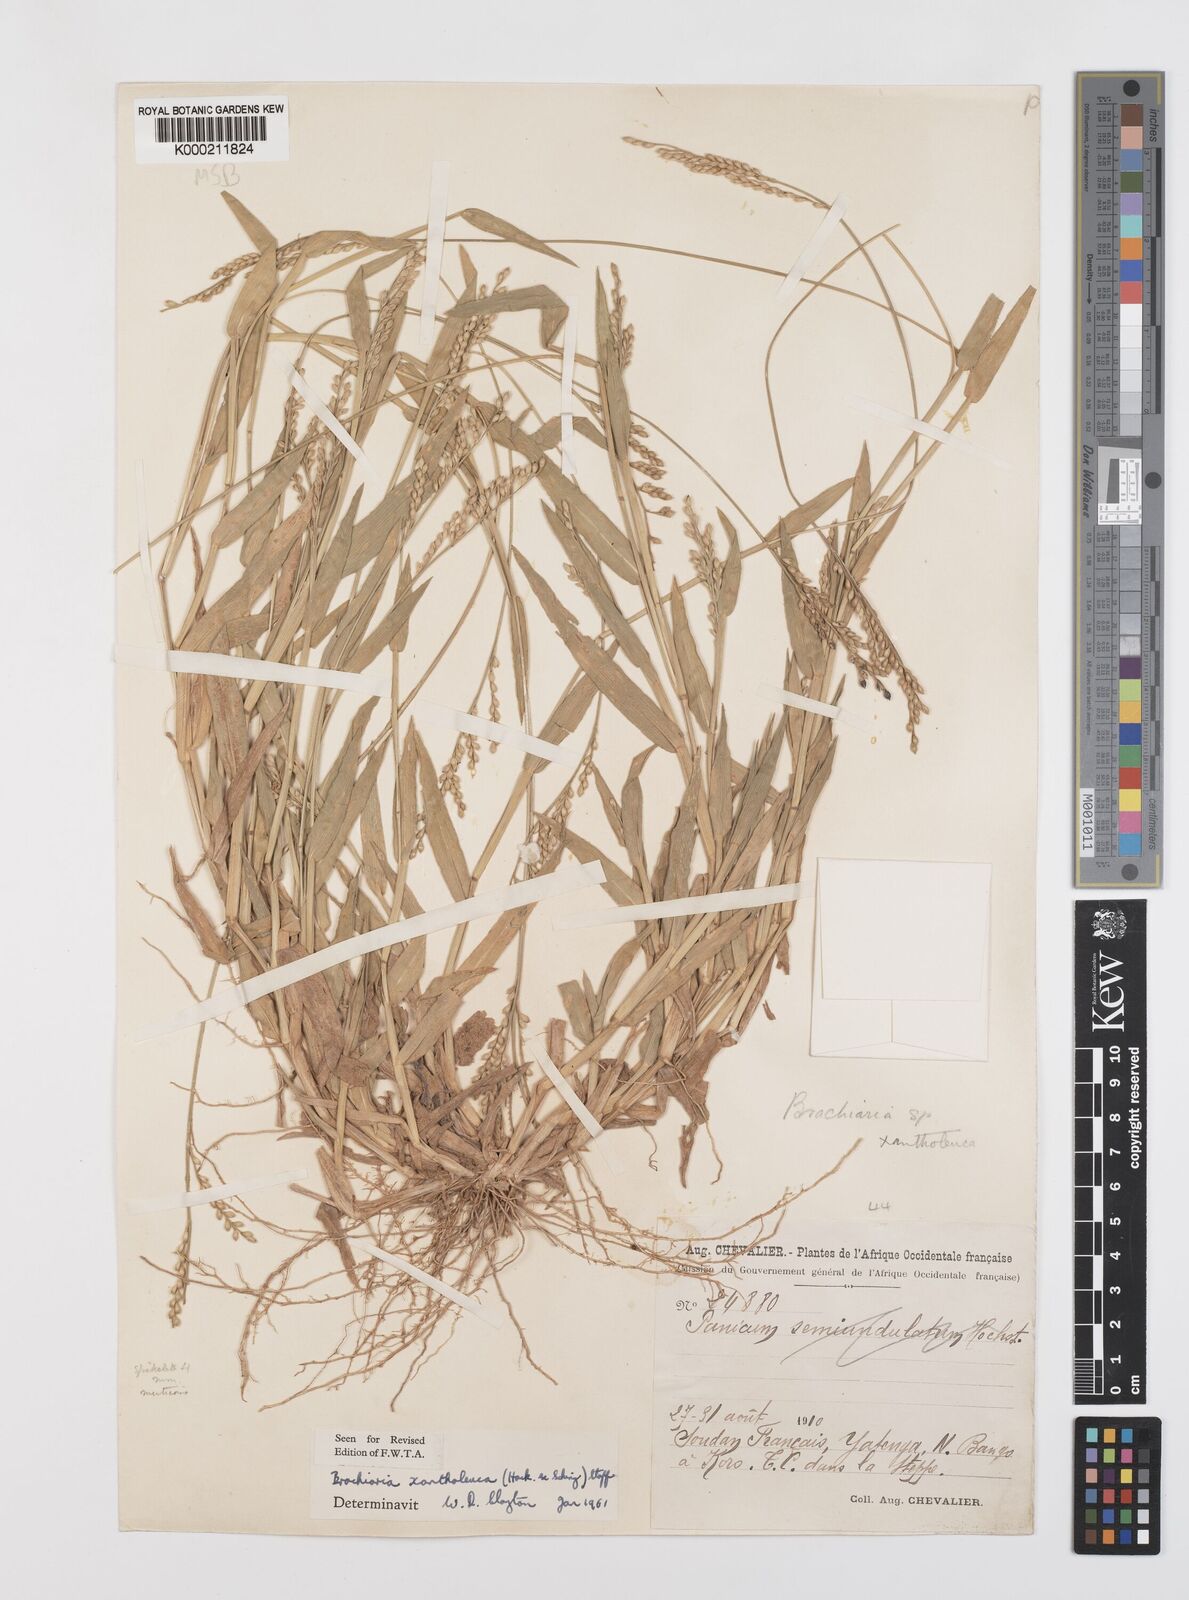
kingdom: Plantae
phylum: Tracheophyta
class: Liliopsida
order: Poales
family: Poaceae
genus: Urochloa
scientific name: Urochloa xantholeuca
